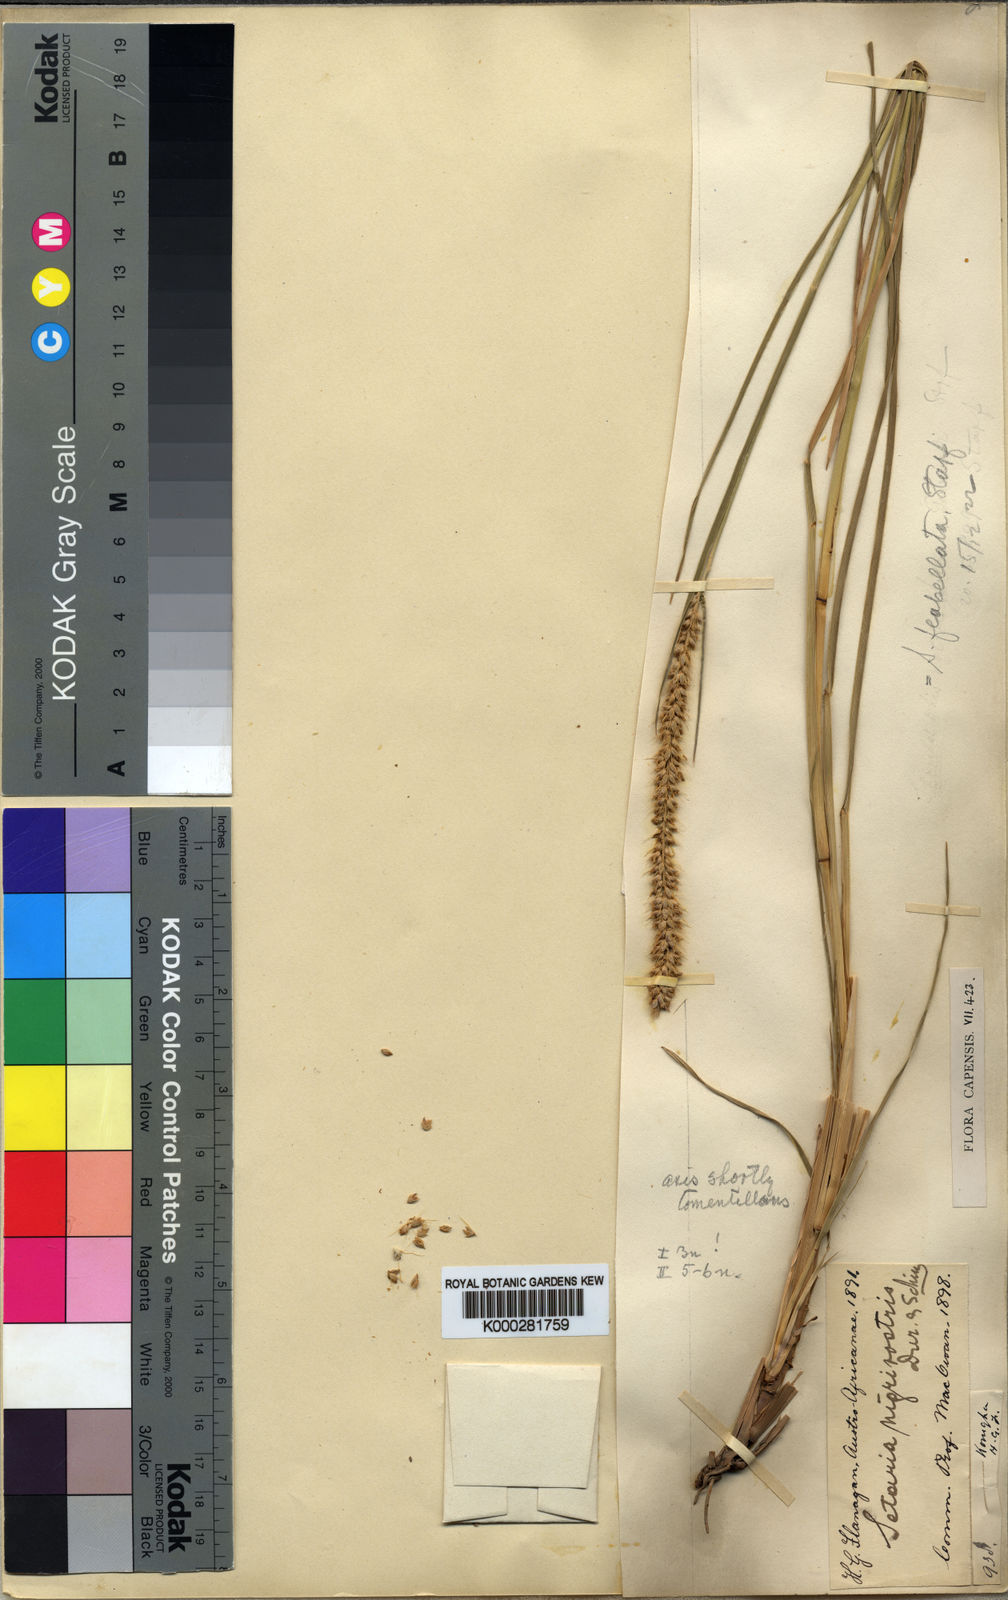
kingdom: Plantae
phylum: Tracheophyta
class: Liliopsida
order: Poales
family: Poaceae
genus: Setaria
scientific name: Setaria sphacelata
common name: African bristlegrass
